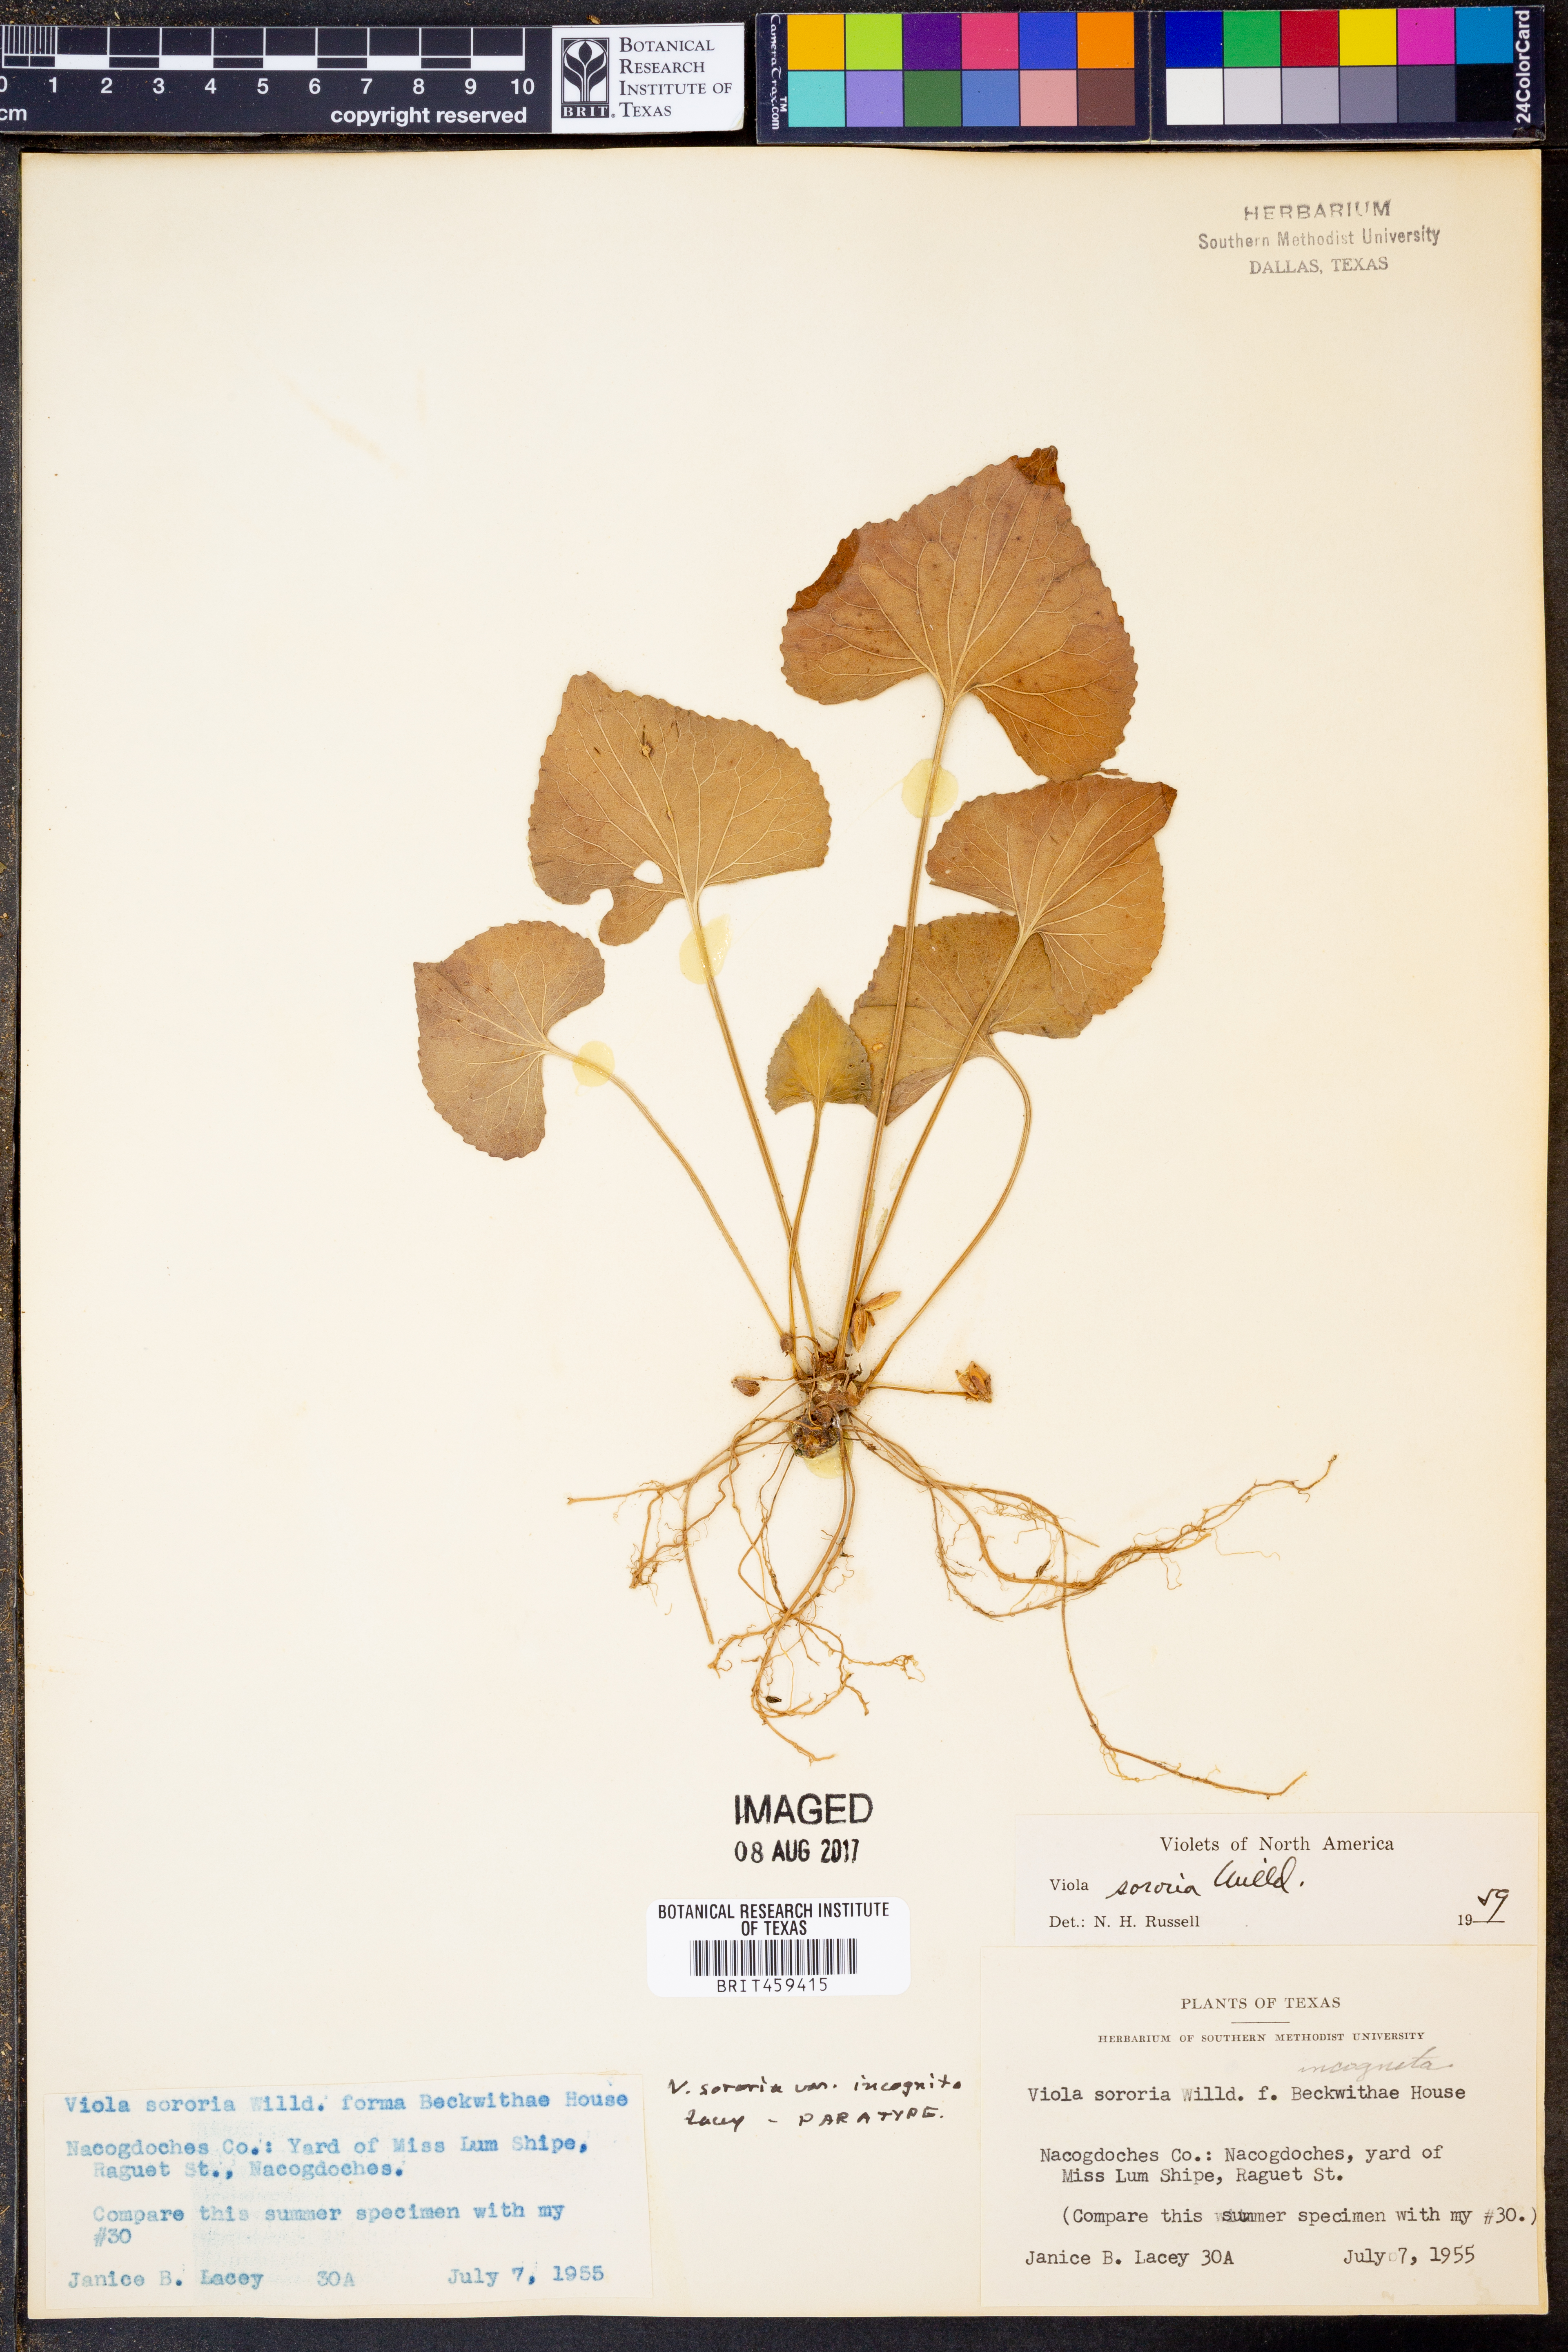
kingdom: Plantae
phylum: Tracheophyta
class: Magnoliopsida
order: Malpighiales
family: Violaceae
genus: Viola
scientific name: Viola sororia
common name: Dooryard violet
